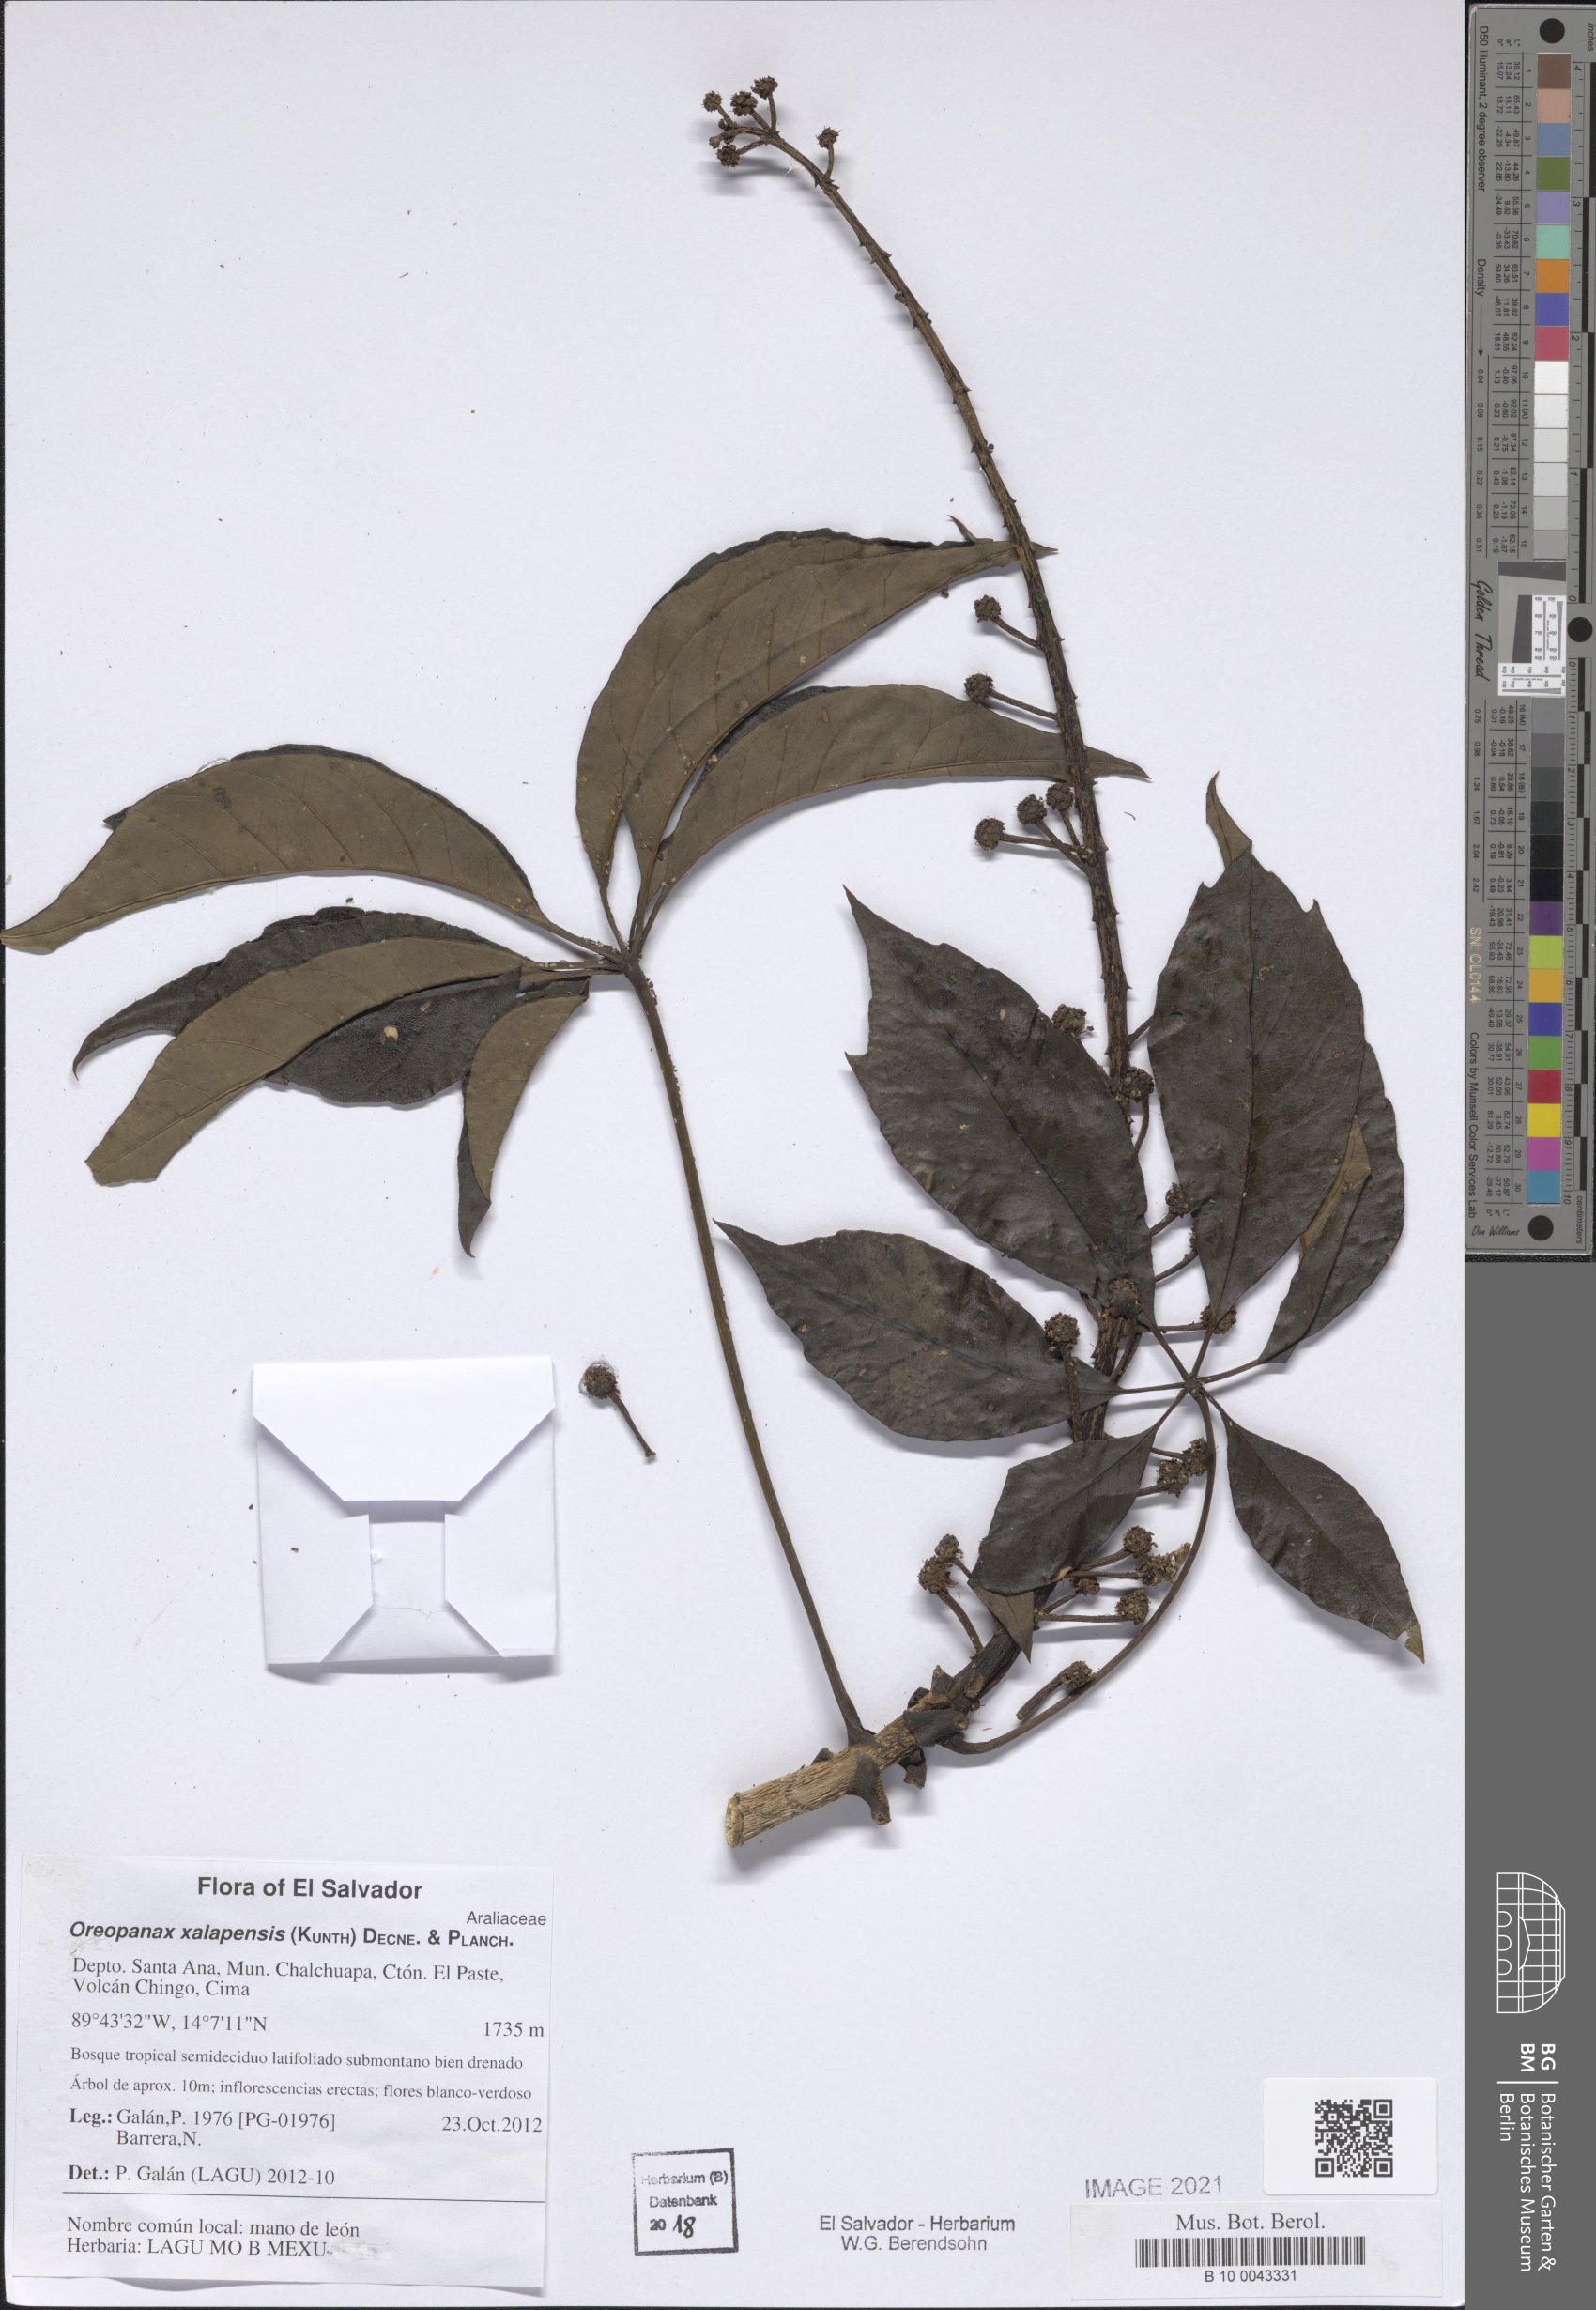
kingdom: Plantae
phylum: Tracheophyta
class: Magnoliopsida
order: Apiales
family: Araliaceae
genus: Oreopanax
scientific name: Oreopanax xalapensis
